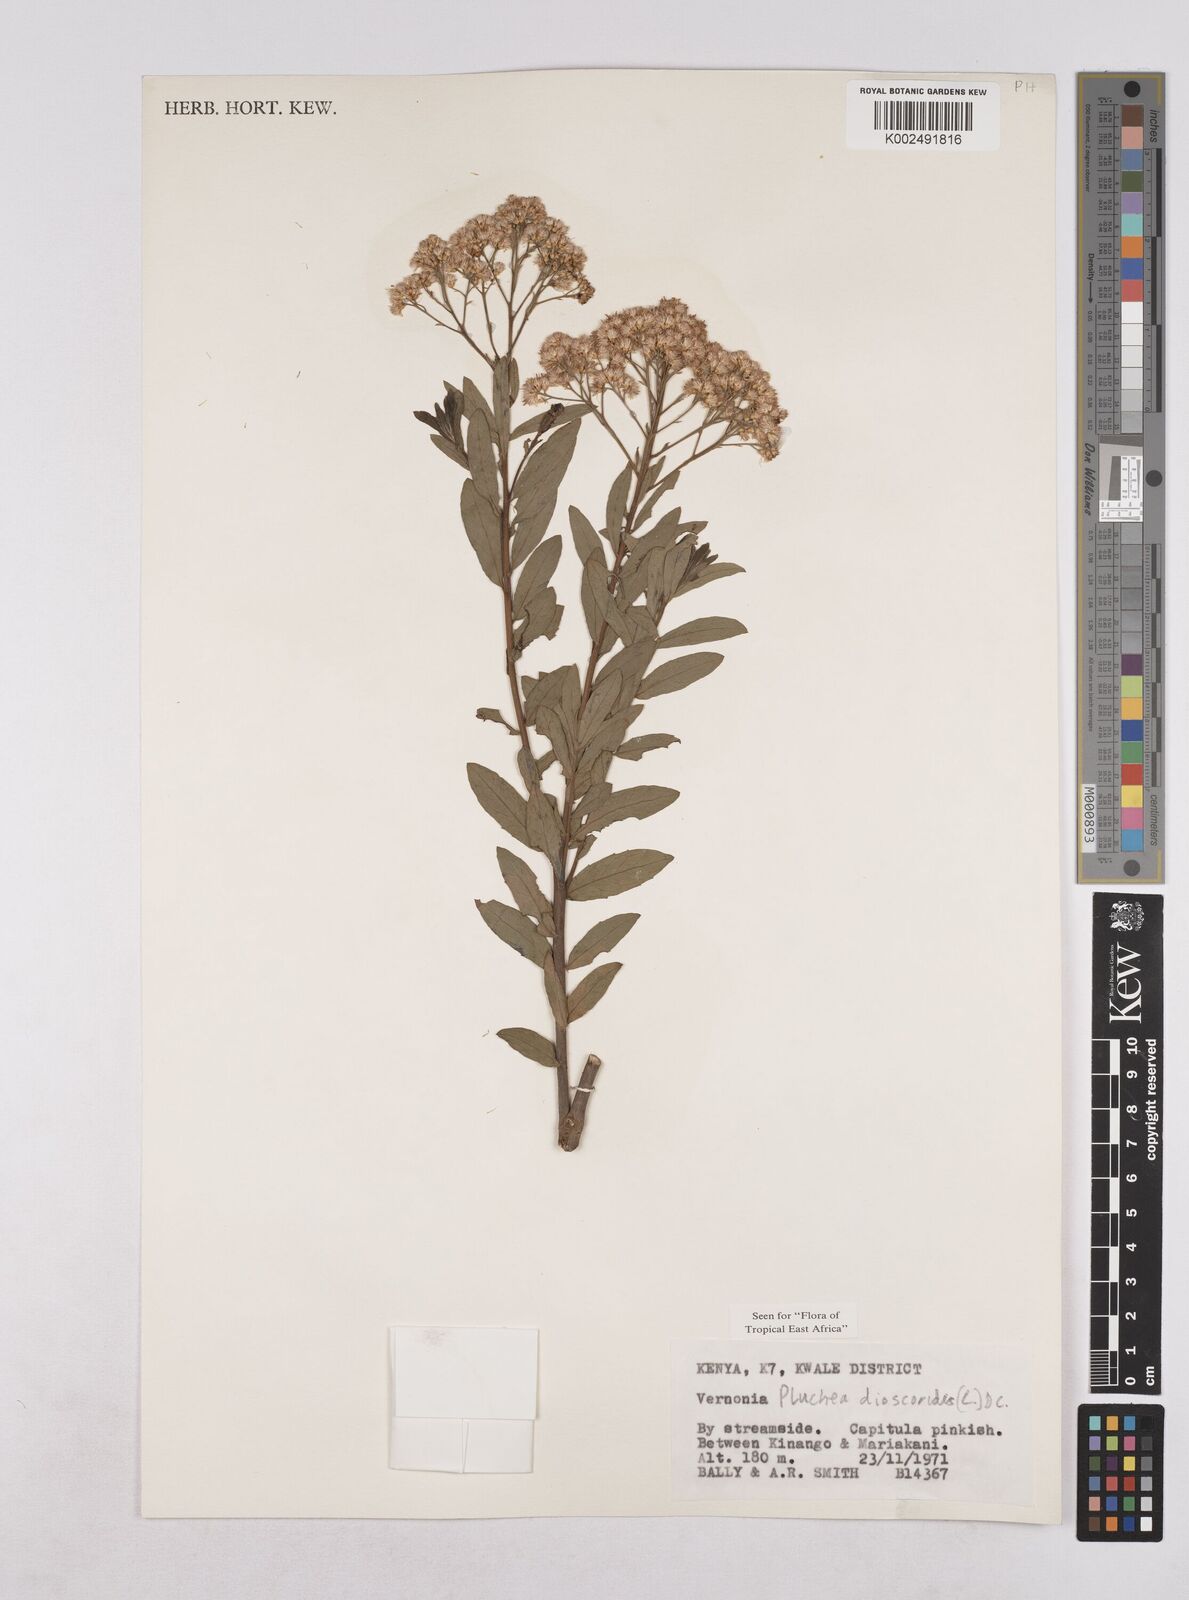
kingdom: Plantae
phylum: Tracheophyta
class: Magnoliopsida
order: Asterales
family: Asteraceae
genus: Pluchea
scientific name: Pluchea dioscoridis
